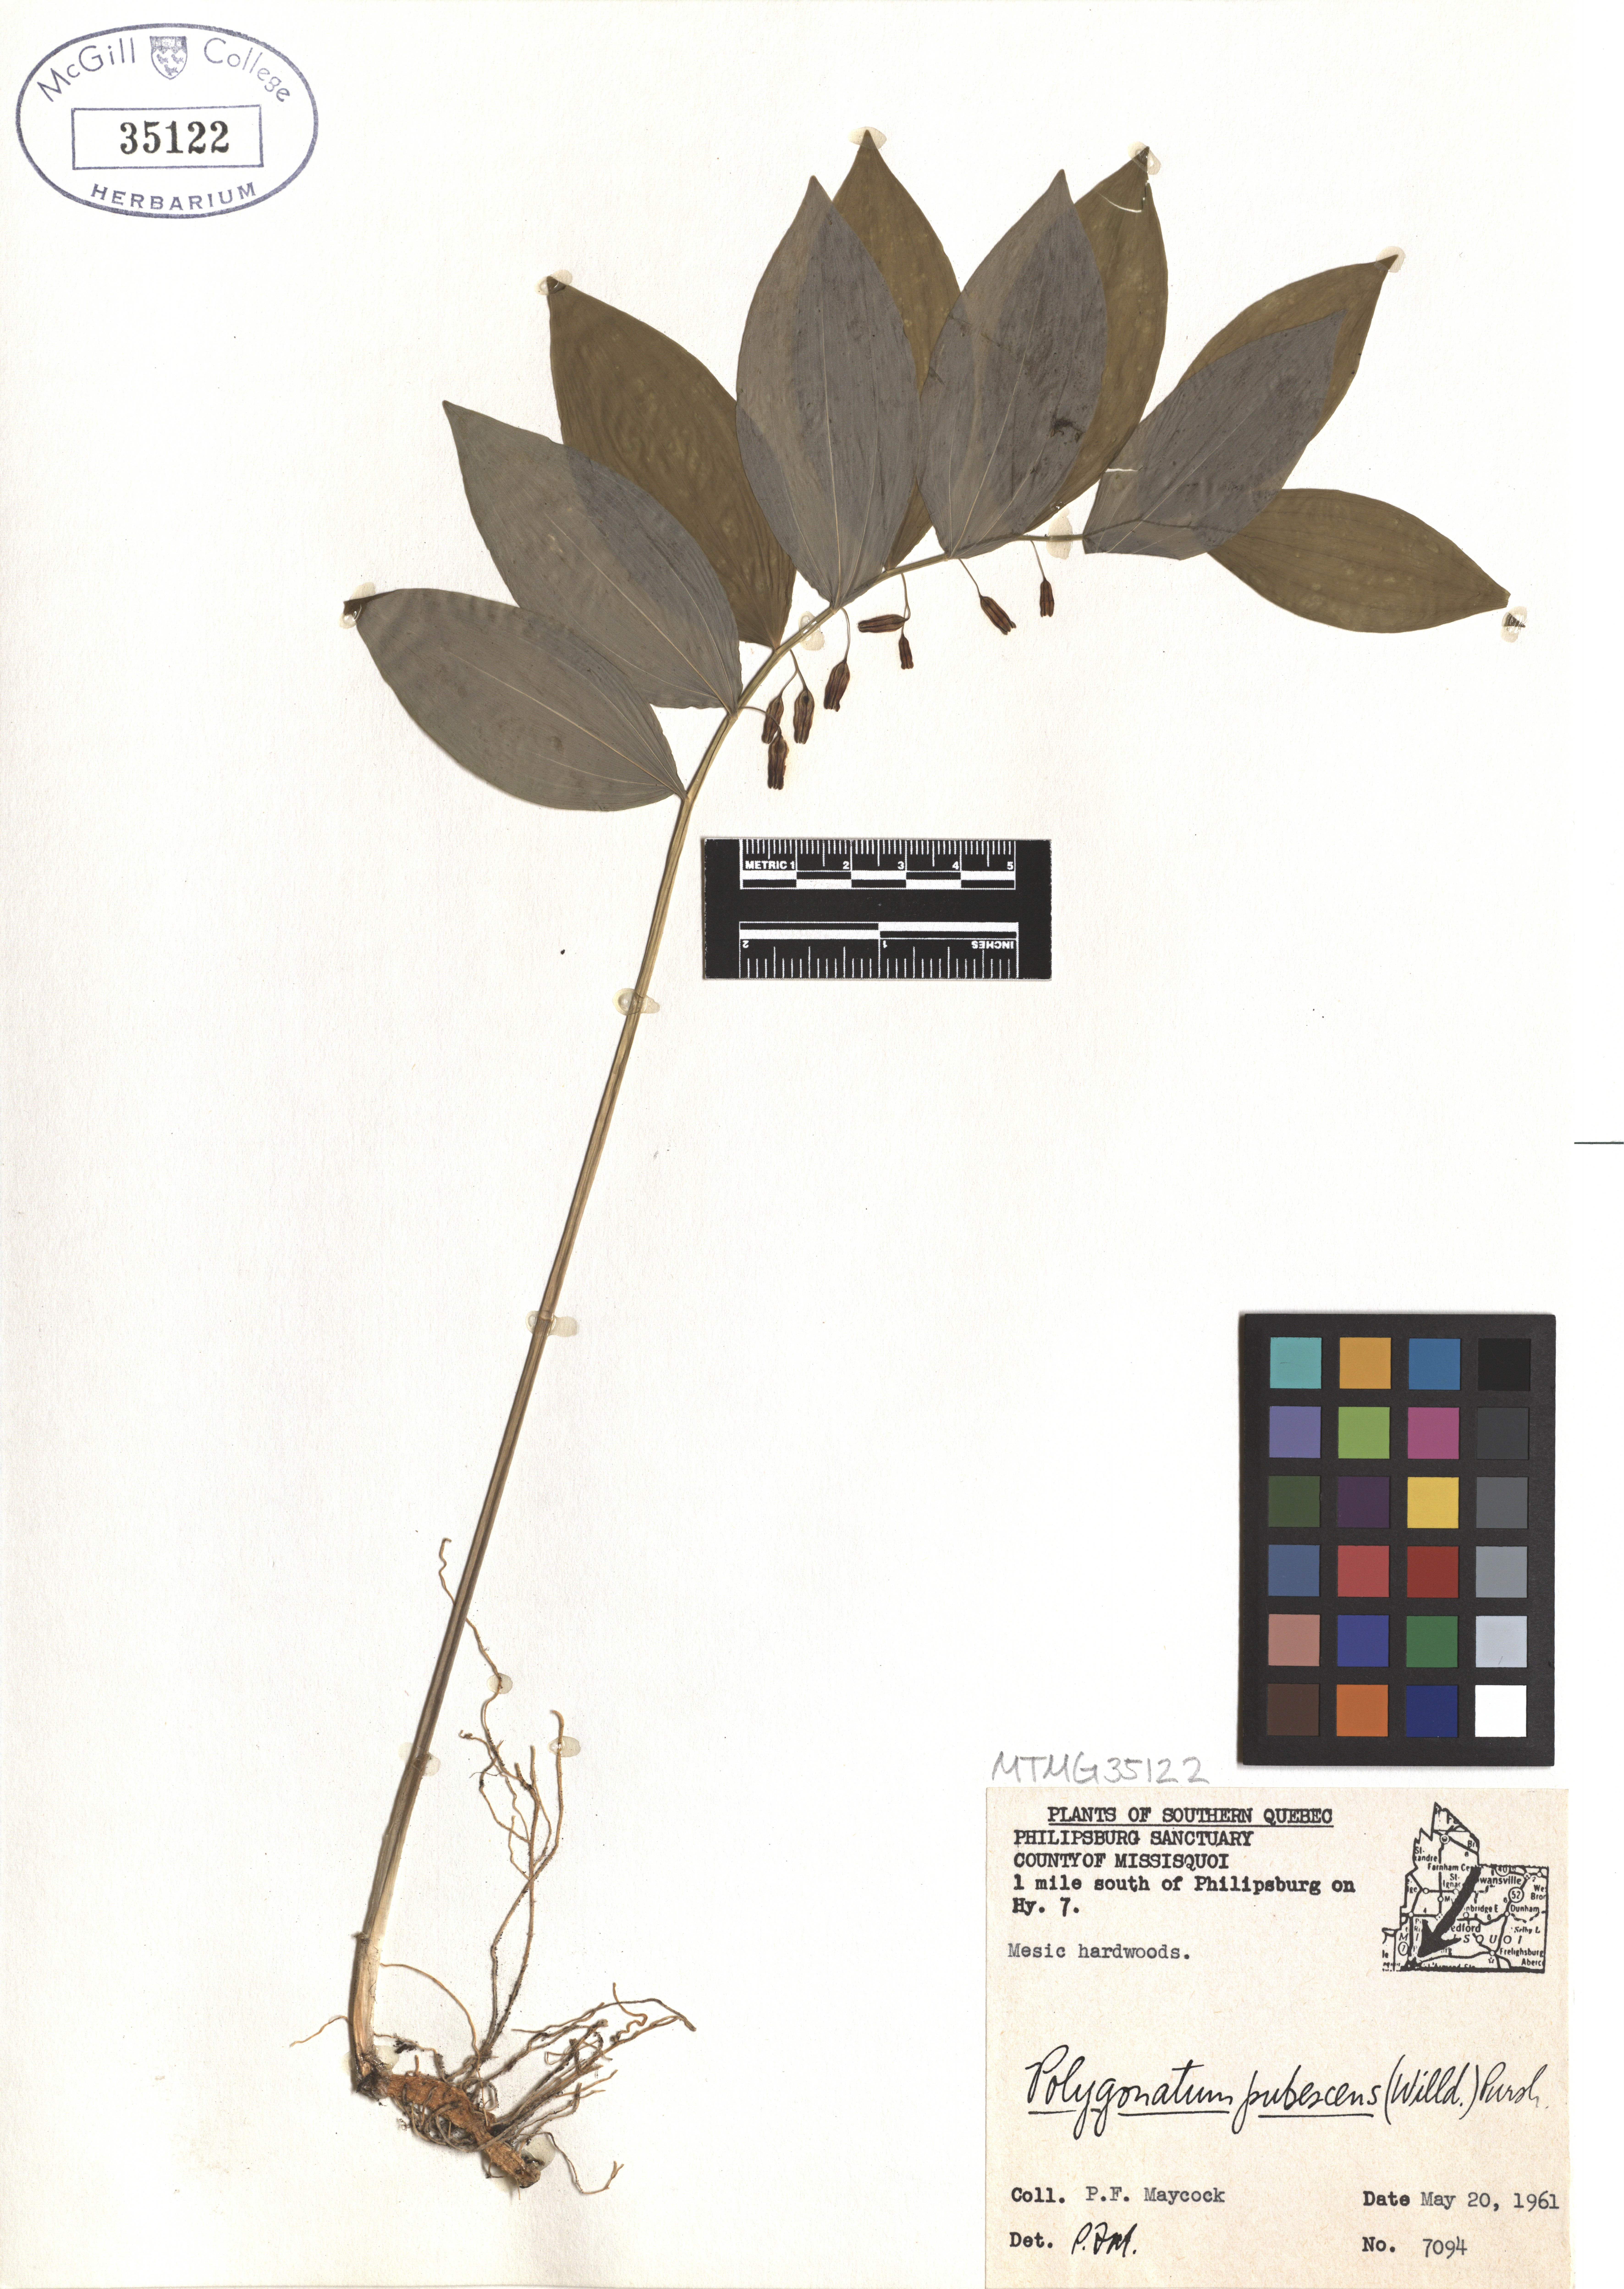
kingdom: Plantae
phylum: Tracheophyta
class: Liliopsida
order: Asparagales
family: Asparagaceae
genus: Polygonatum
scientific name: Polygonatum pubescens
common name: Downy solomon's seal
